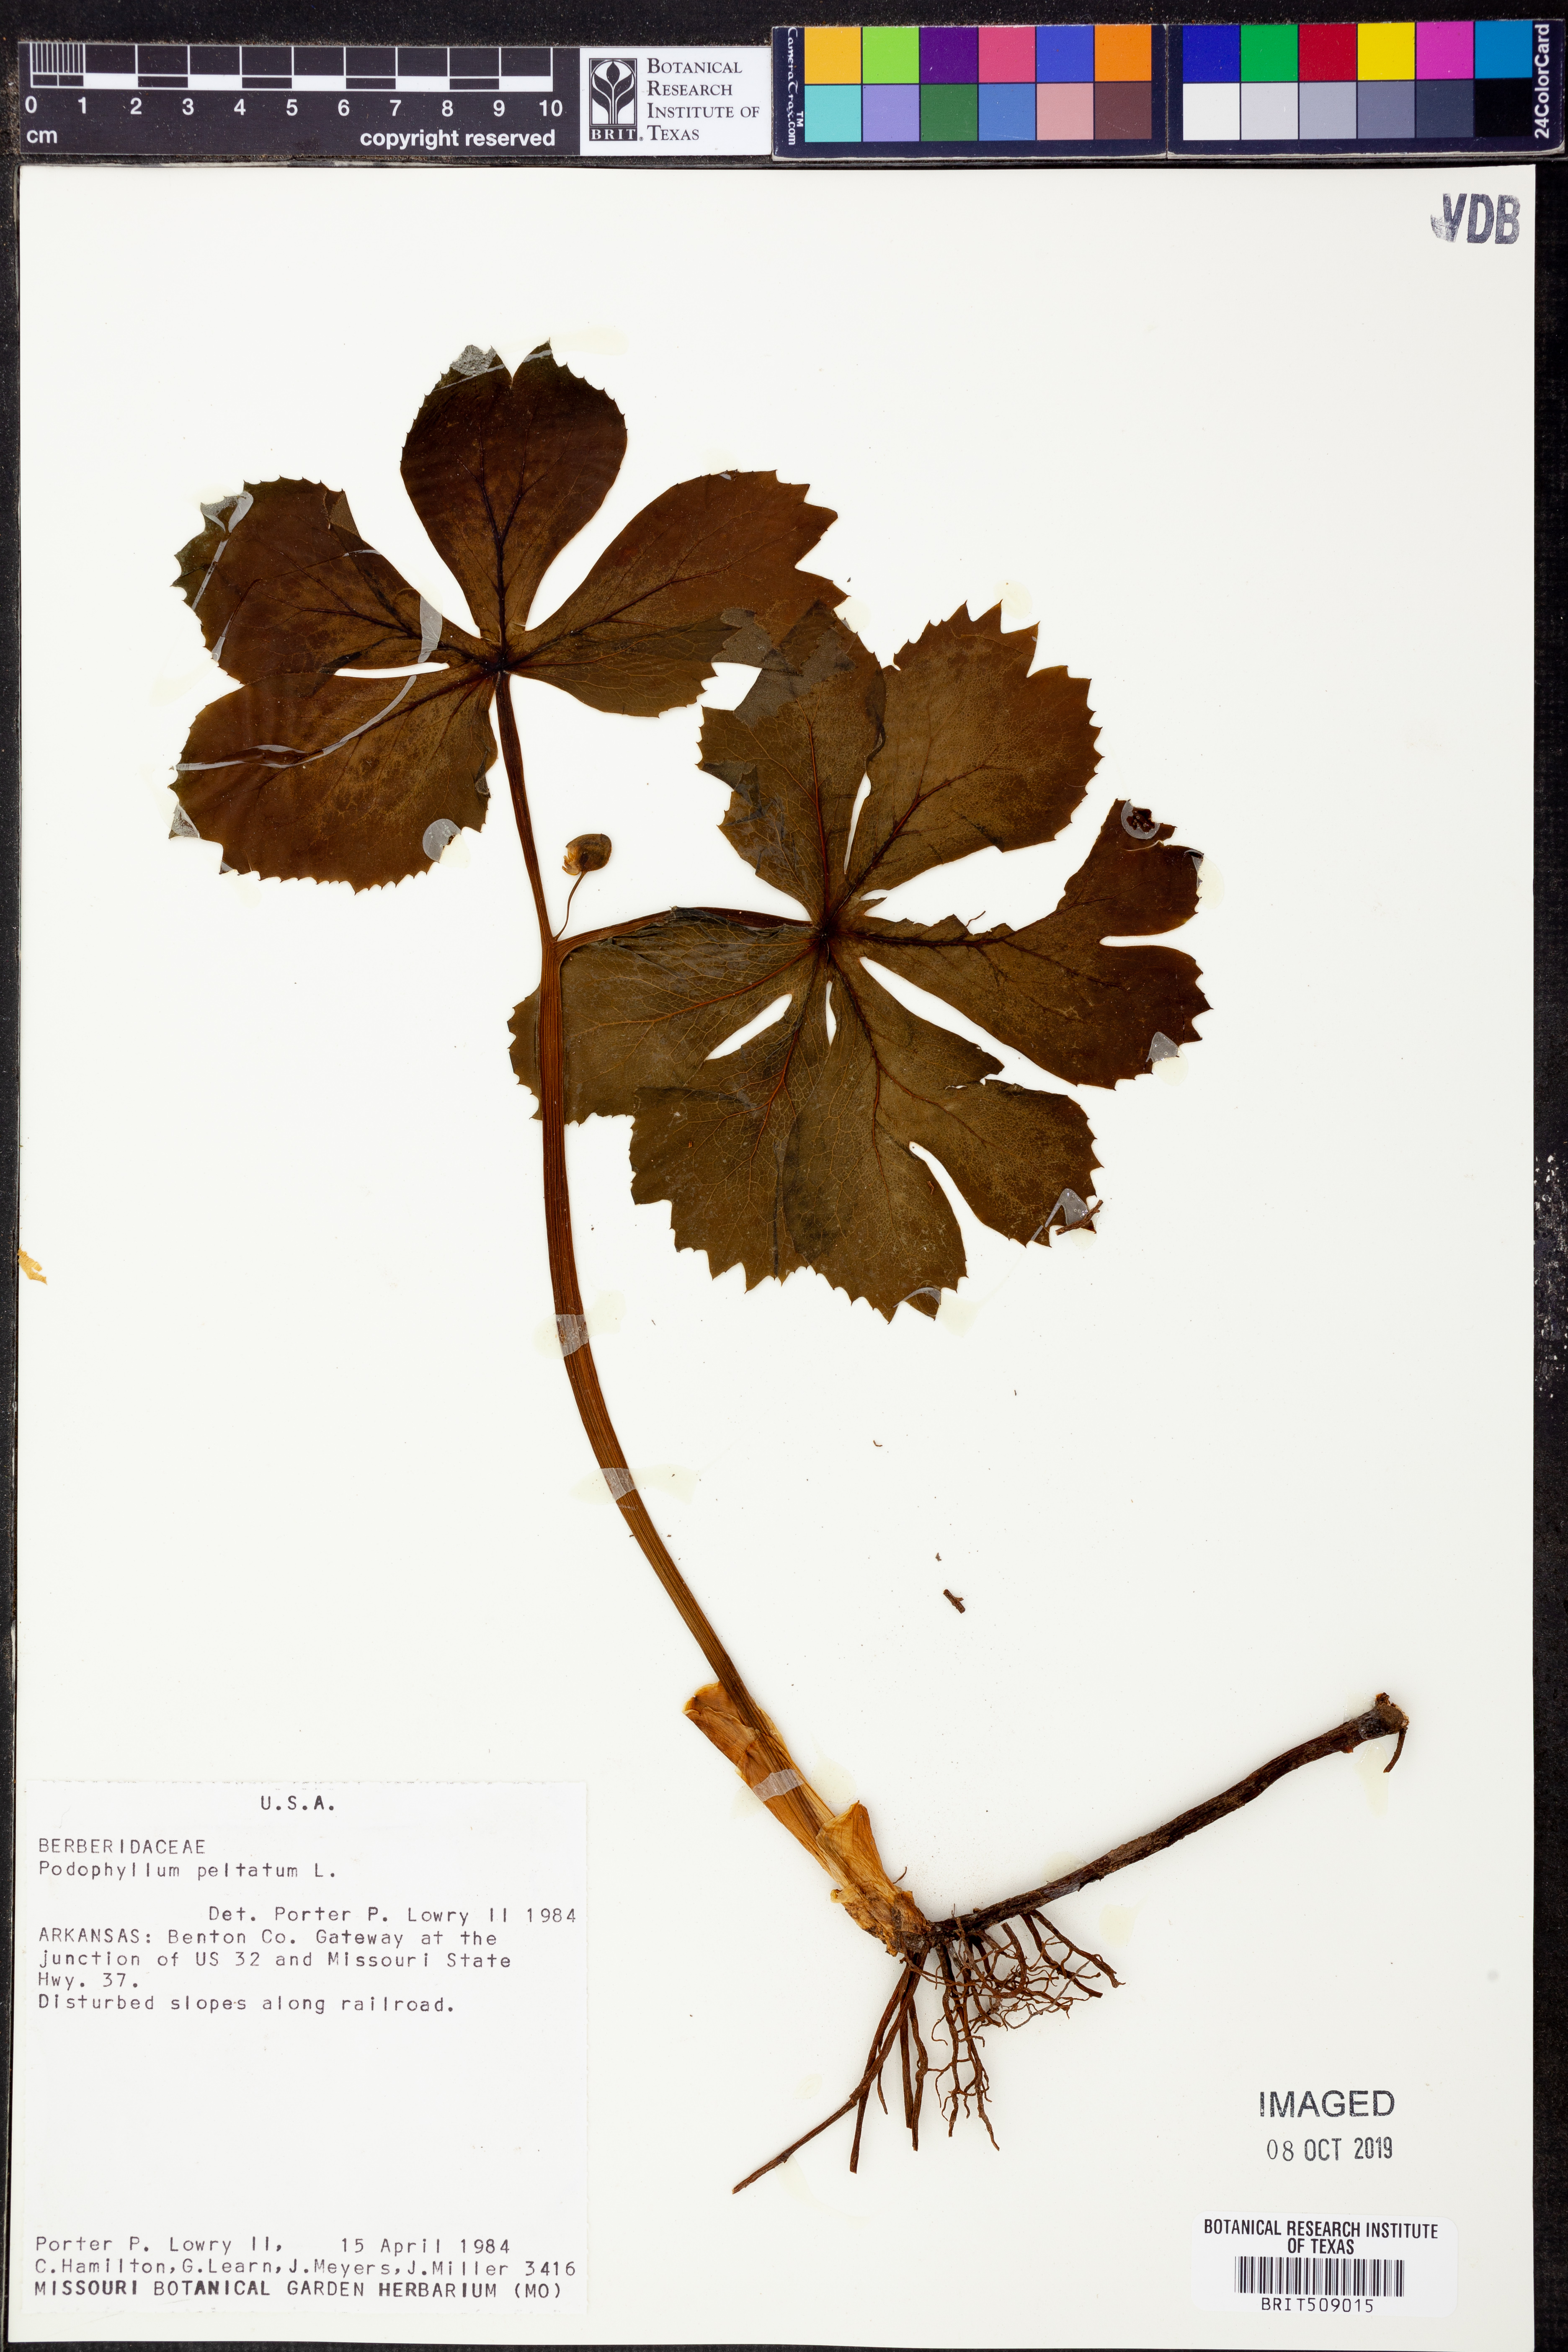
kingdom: Plantae
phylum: Tracheophyta
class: Magnoliopsida
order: Ranunculales
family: Berberidaceae
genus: Podophyllum
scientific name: Podophyllum peltatum
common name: Wild mandrake
